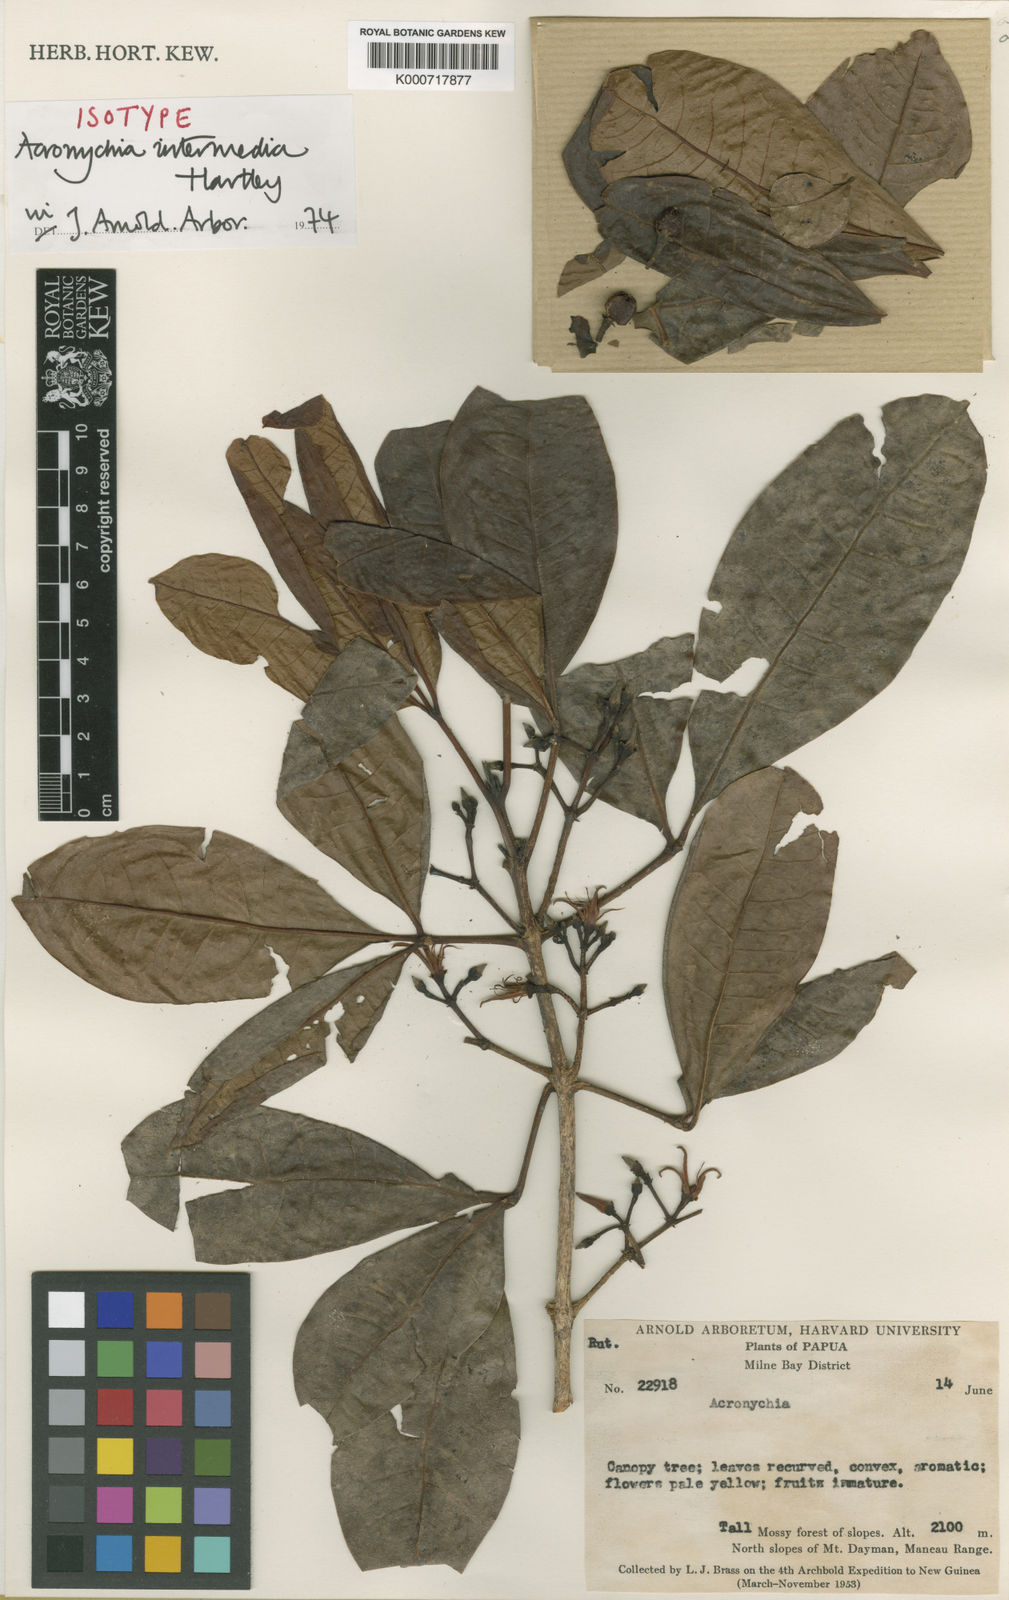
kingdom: Plantae
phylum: Tracheophyta
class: Magnoliopsida
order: Sapindales
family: Rutaceae
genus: Acronychia
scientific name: Acronychia intermedia
